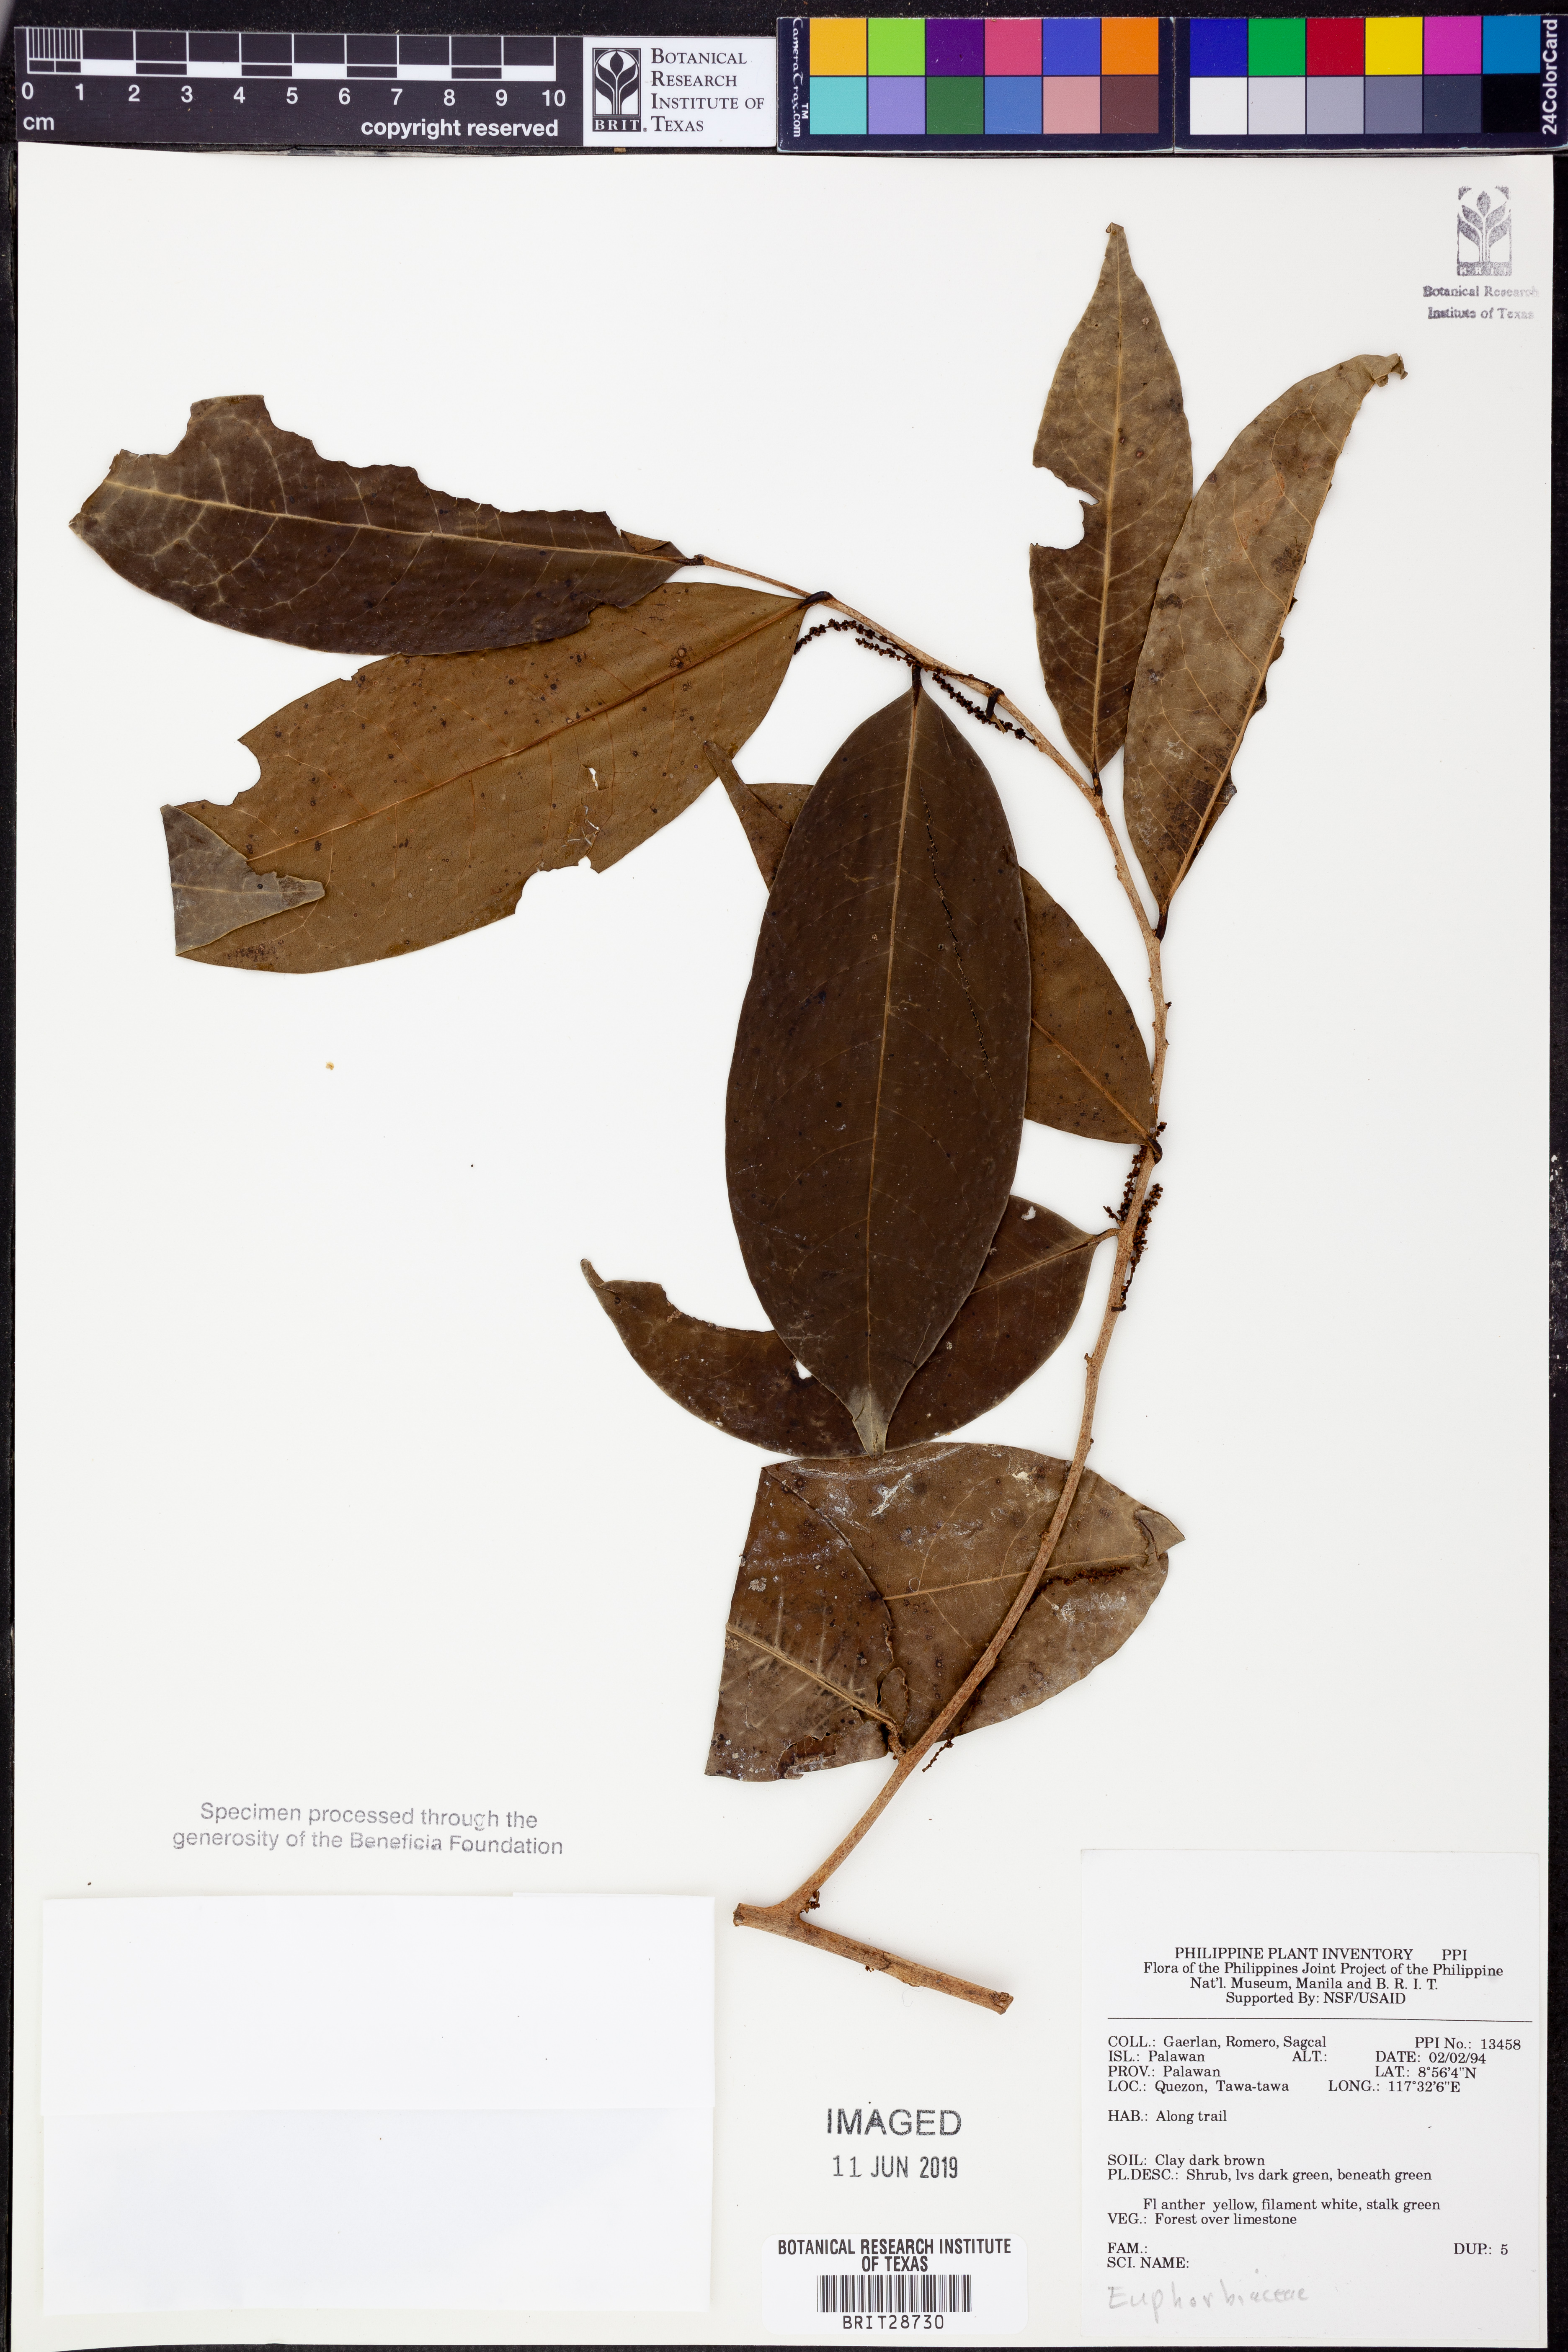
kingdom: Plantae
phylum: Tracheophyta
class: Magnoliopsida
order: Malpighiales
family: Euphorbiaceae
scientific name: Euphorbiaceae
